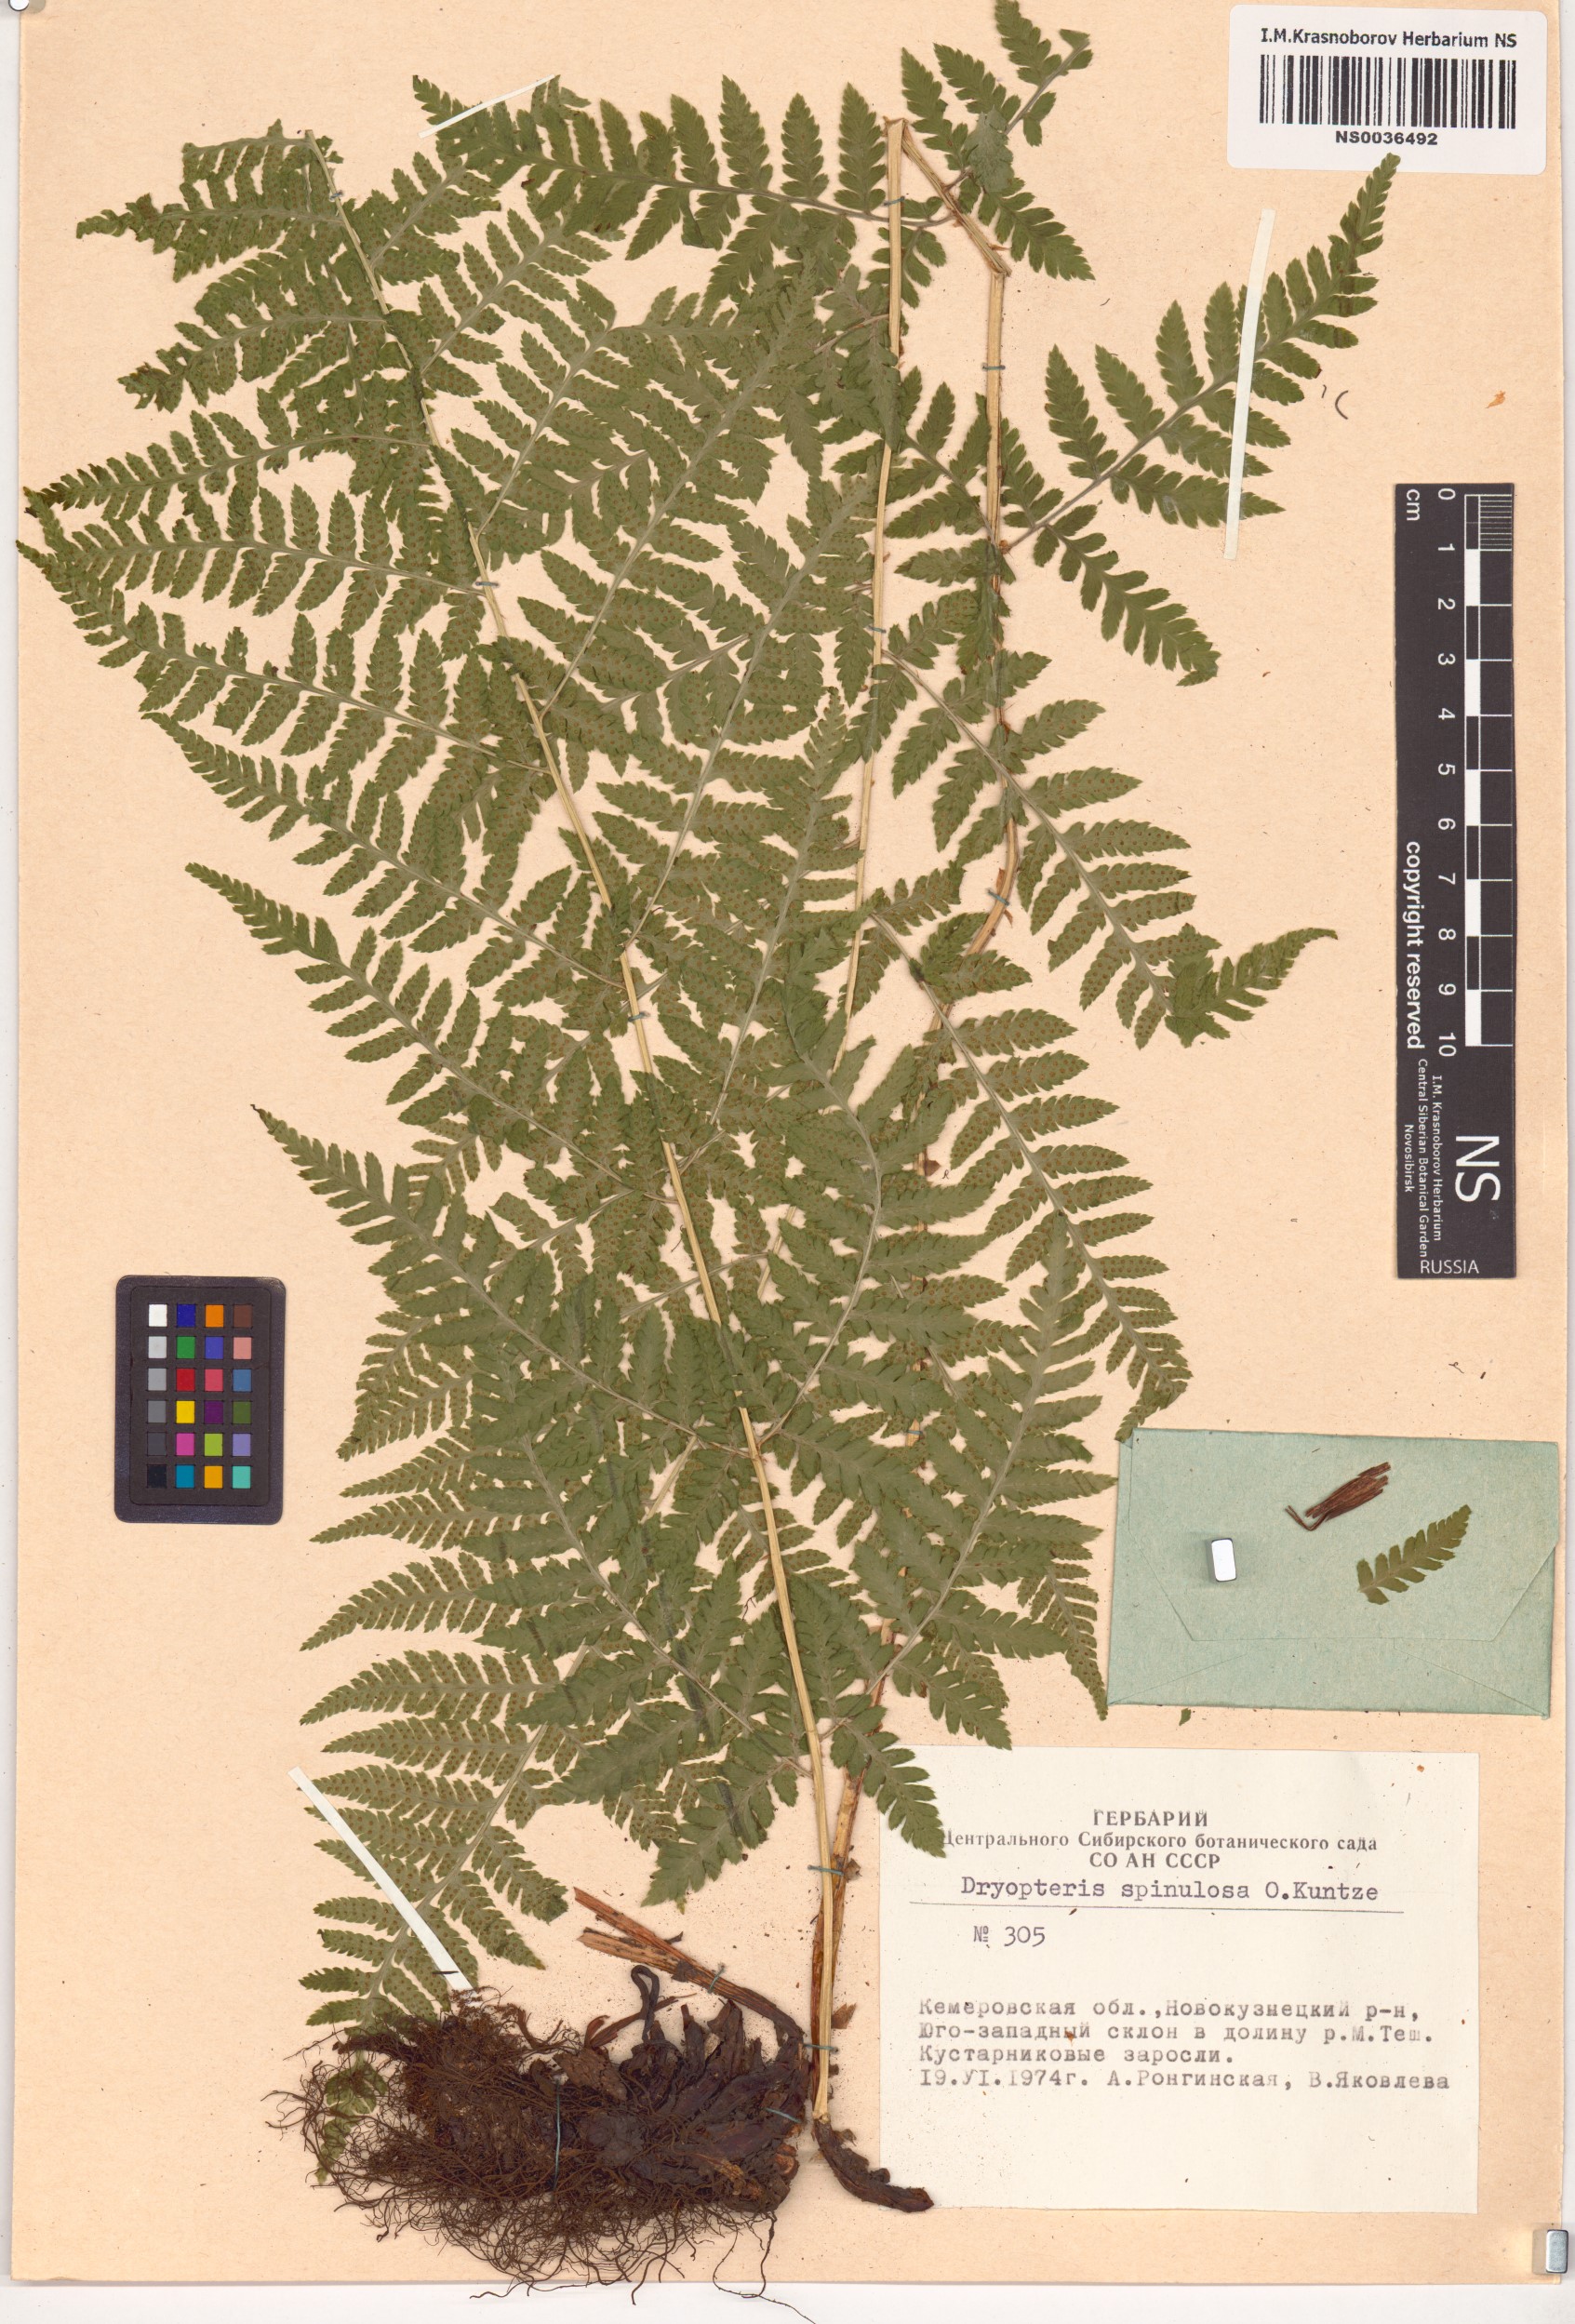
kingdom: Plantae
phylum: Tracheophyta
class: Polypodiopsida
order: Polypodiales
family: Dryopteridaceae
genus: Dryopteris
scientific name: Dryopteris carthusiana
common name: Narrow buckler-fern
